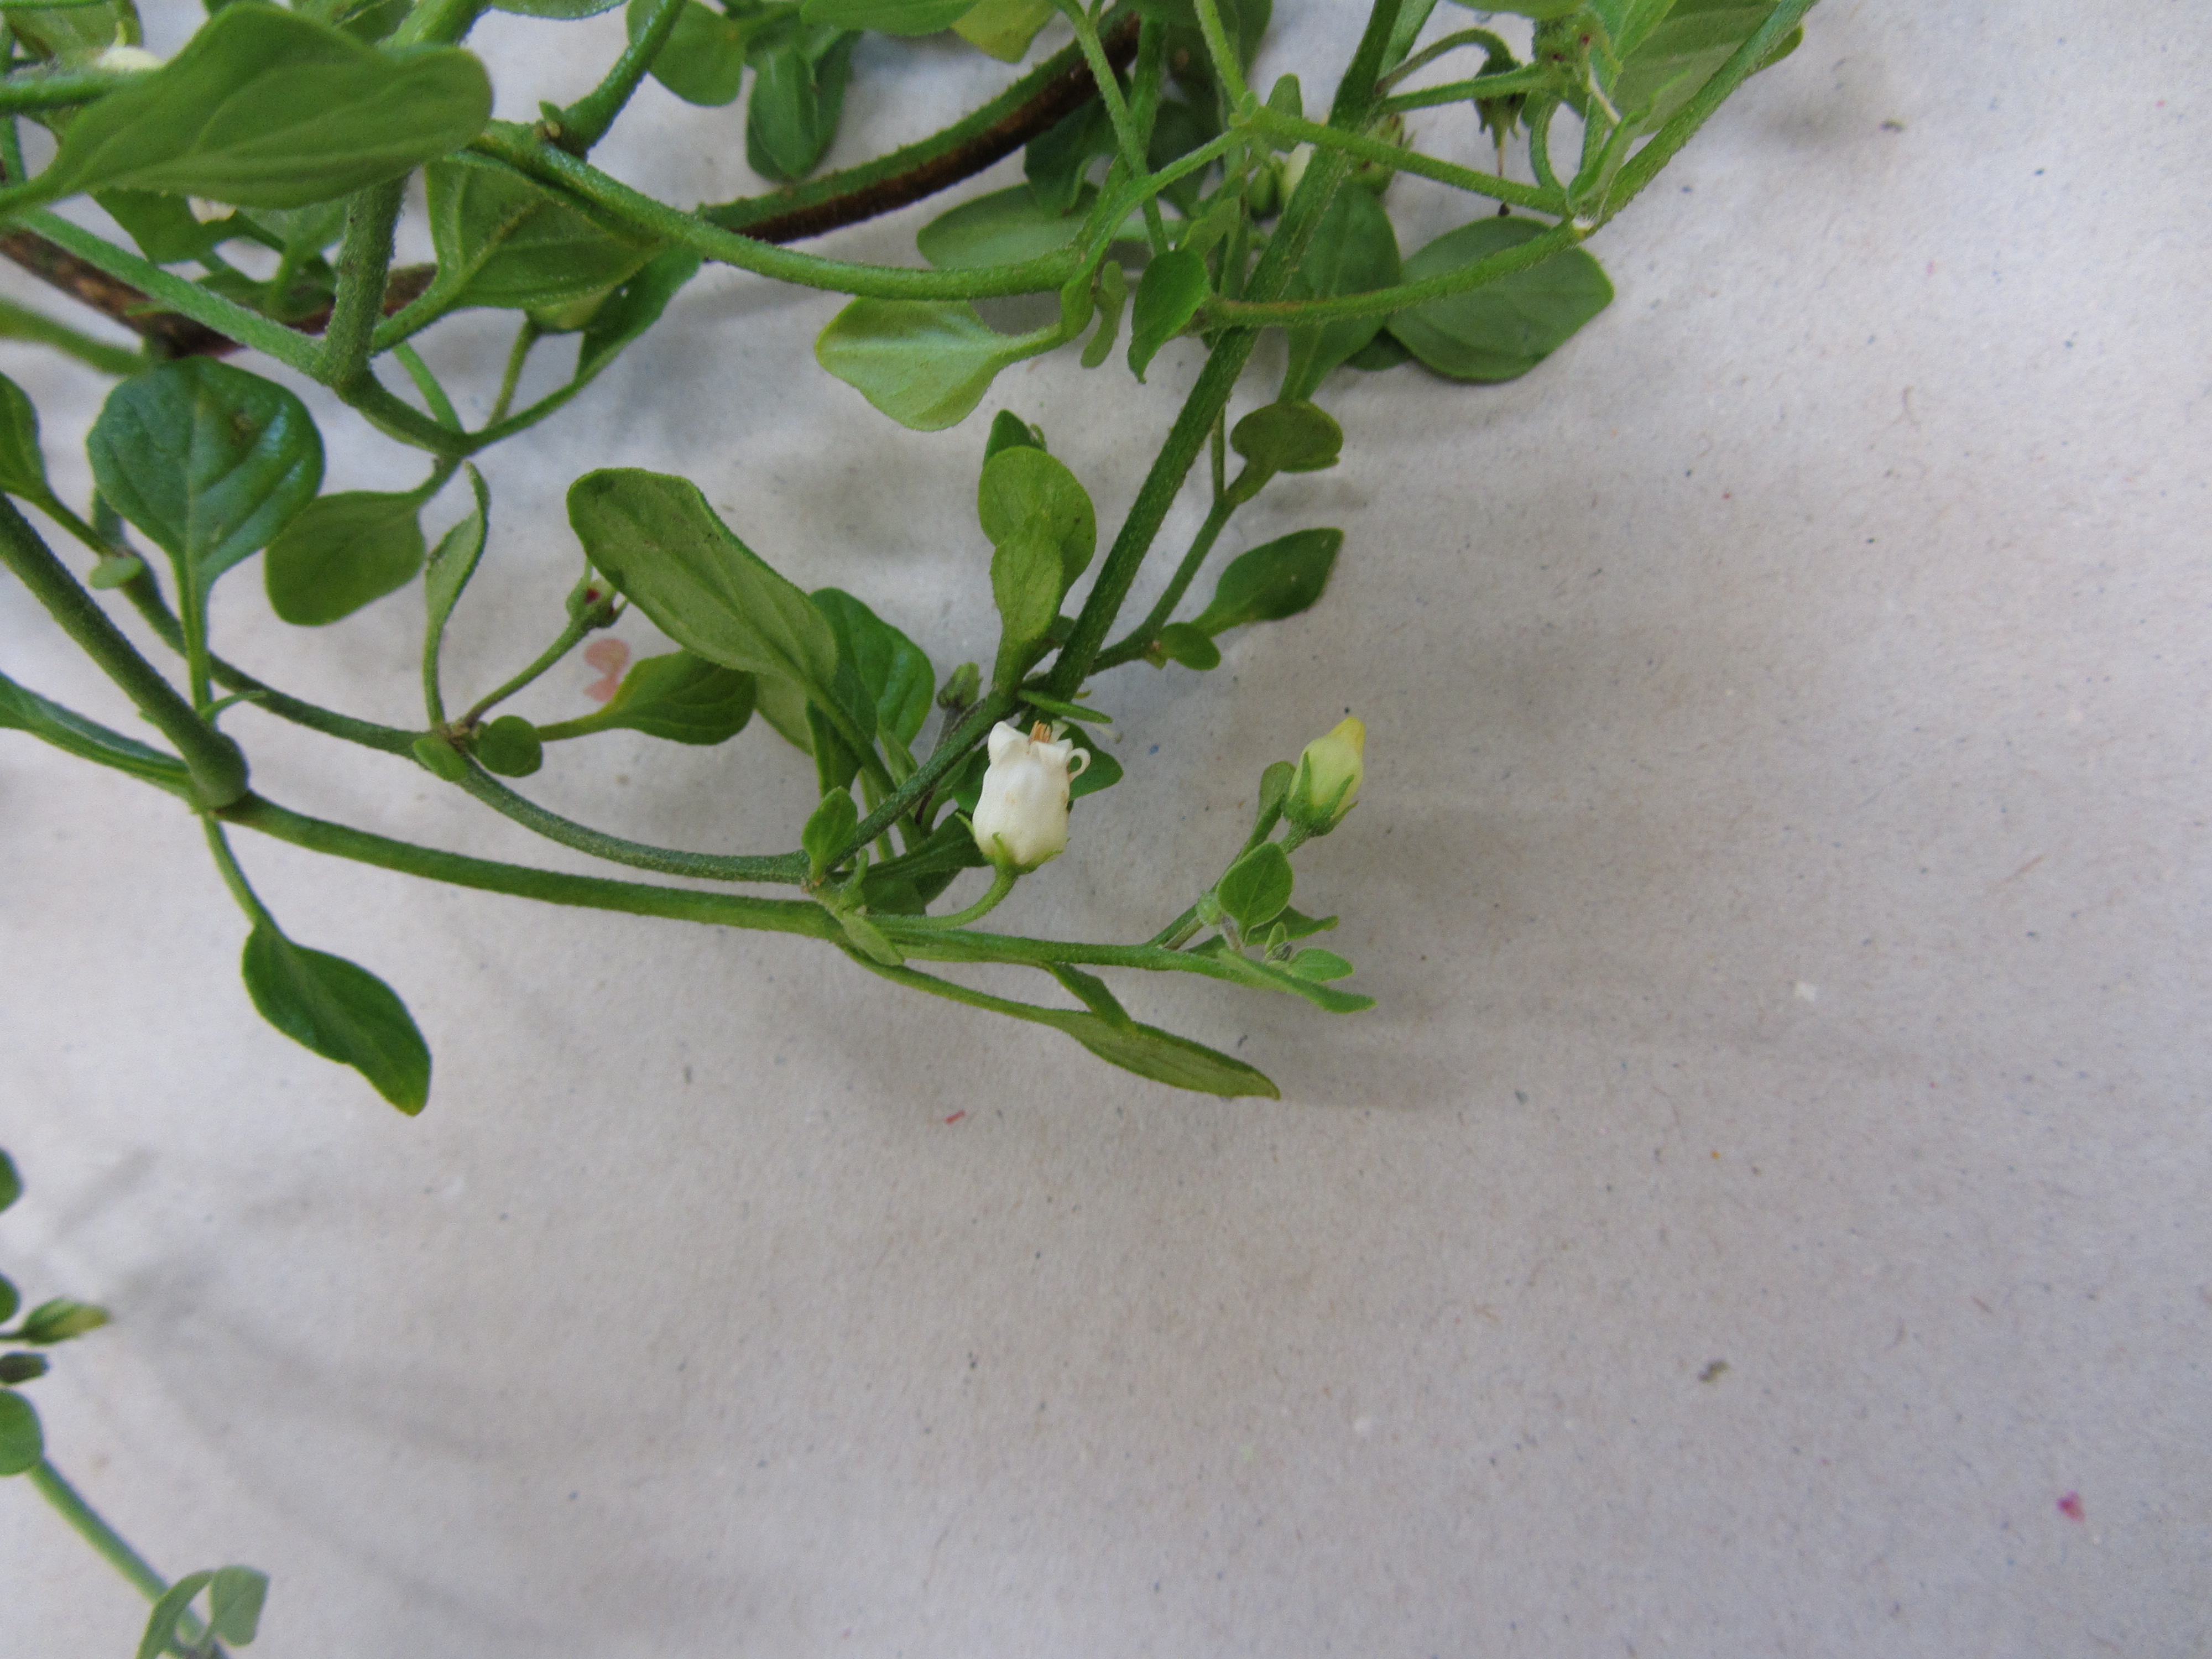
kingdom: Plantae
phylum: Tracheophyta
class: Magnoliopsida
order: Solanales
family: Solanaceae
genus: Salpichroa
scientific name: Salpichroa origanifolia
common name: Lily-of-the-valley-vine
